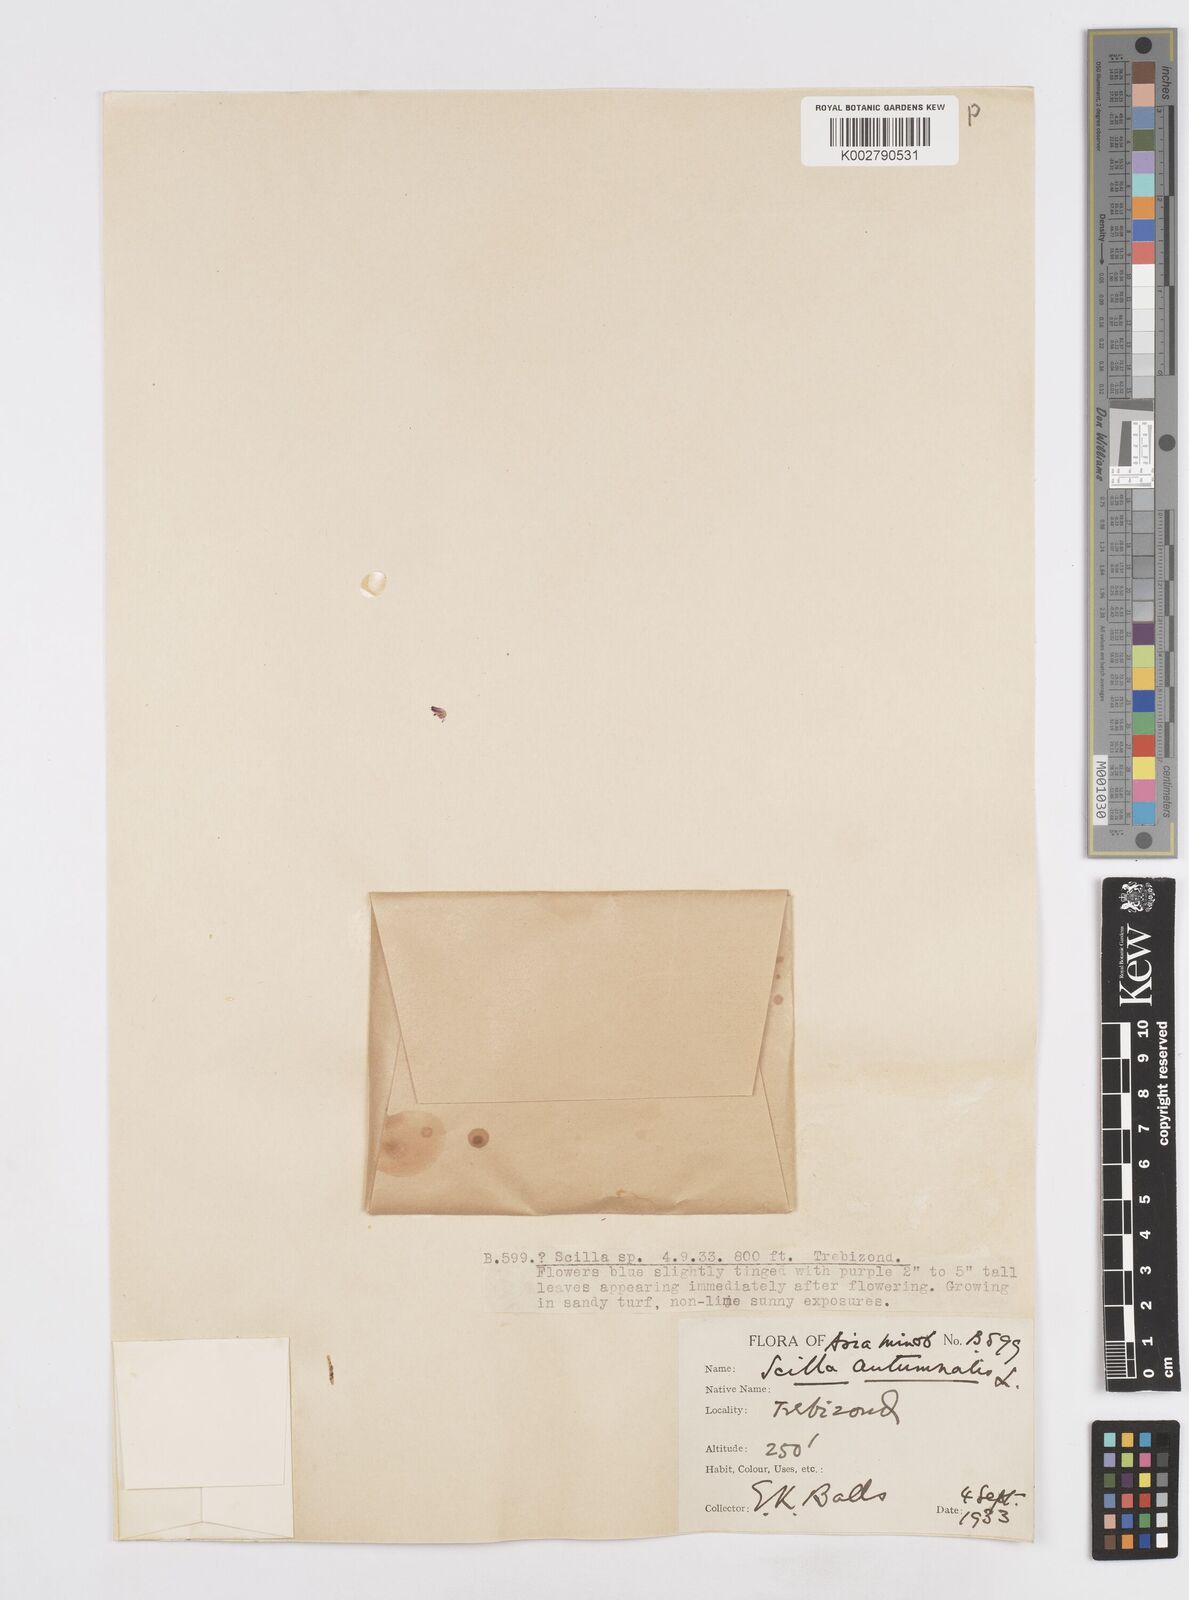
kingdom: Plantae
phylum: Tracheophyta
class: Liliopsida
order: Asparagales
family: Asparagaceae
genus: Prospero
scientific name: Prospero autumnale
